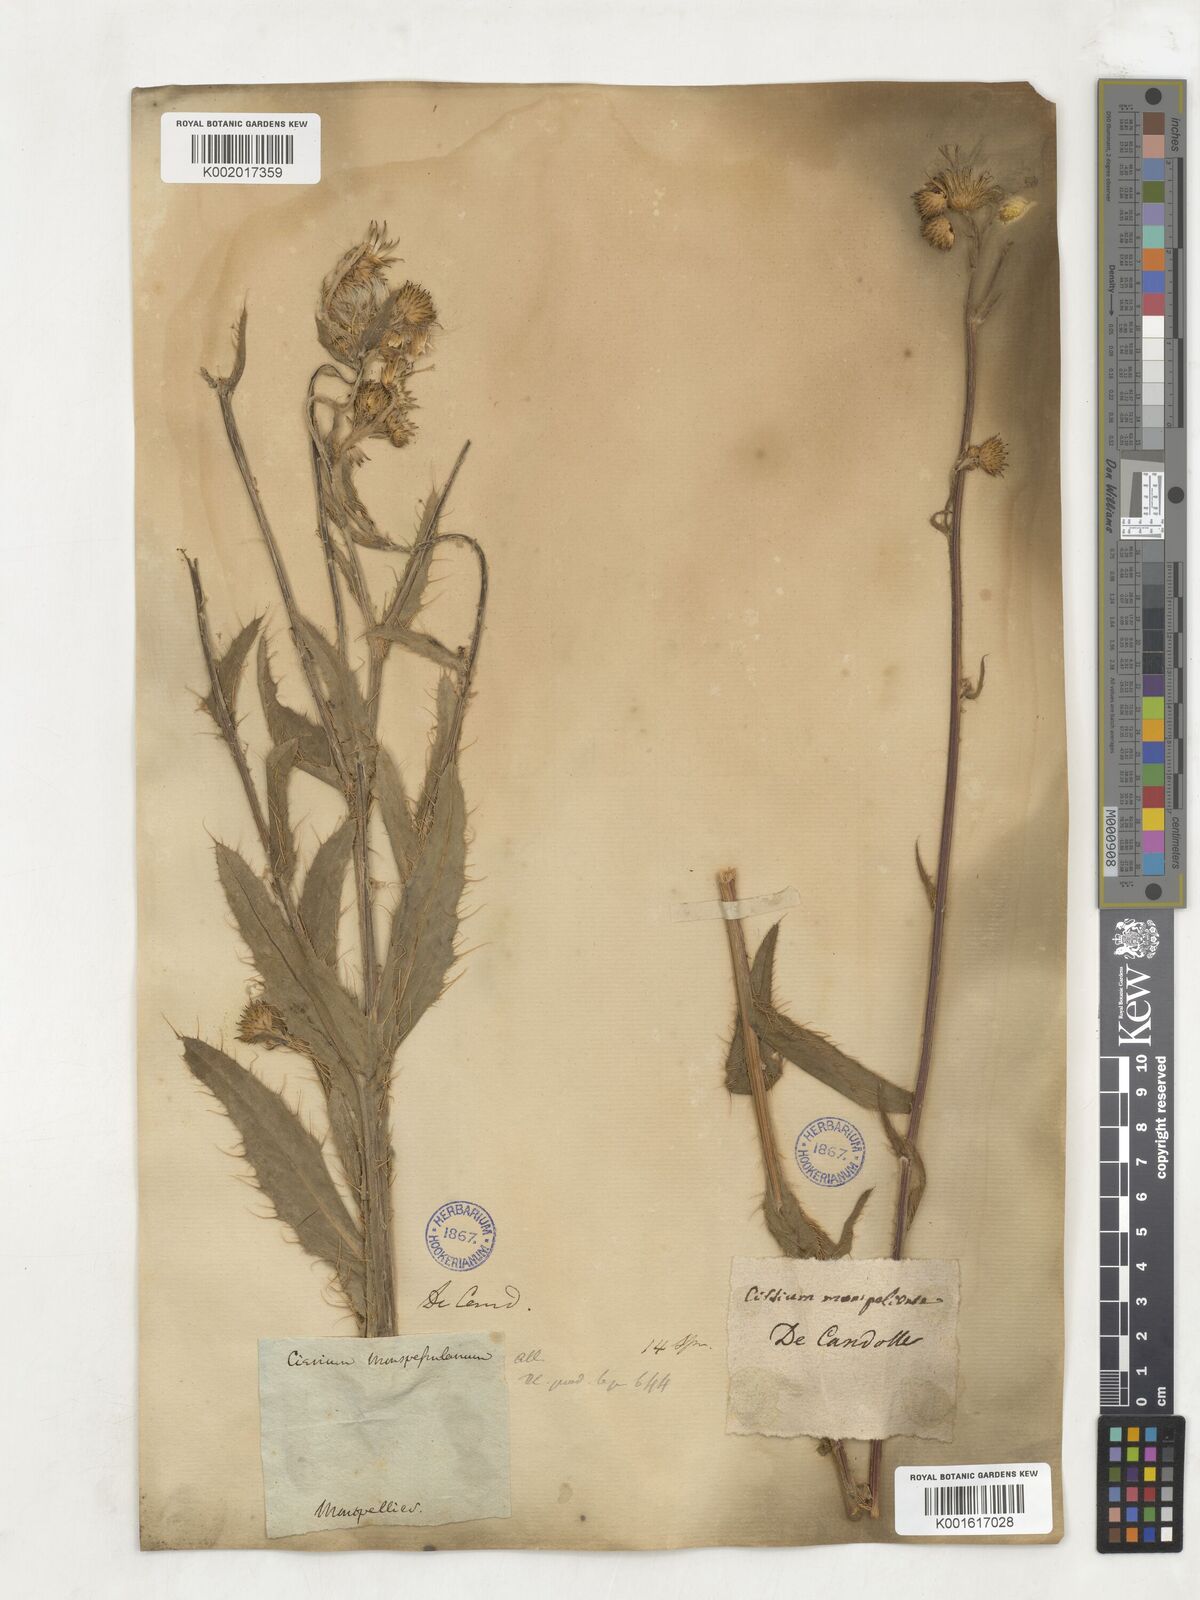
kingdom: Plantae
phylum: Tracheophyta
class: Magnoliopsida
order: Asterales
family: Asteraceae
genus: Cirsium
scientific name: Cirsium monspessulanum
